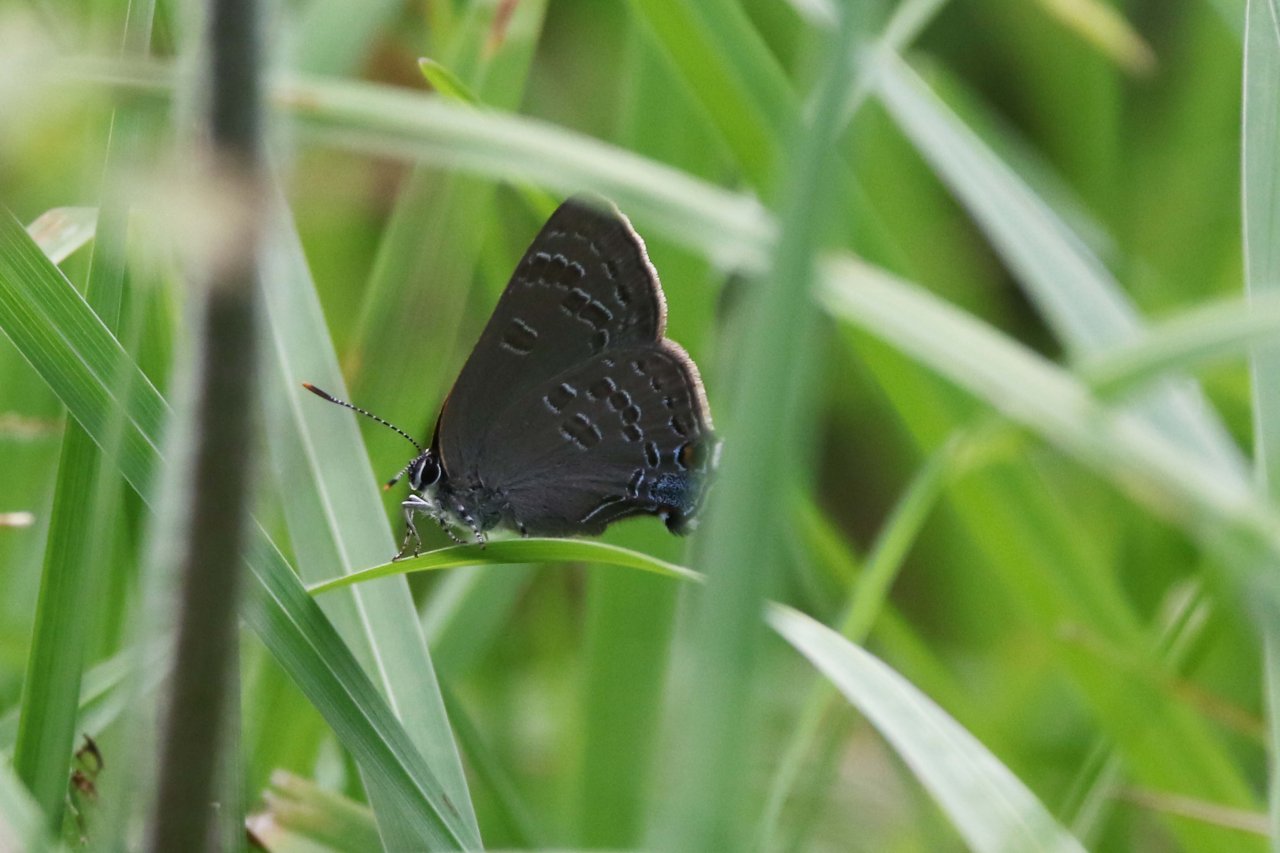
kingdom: Animalia
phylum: Arthropoda
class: Insecta
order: Lepidoptera
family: Lycaenidae
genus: Strymon
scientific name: Strymon caryaevorus
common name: Hickory Hairstreak
